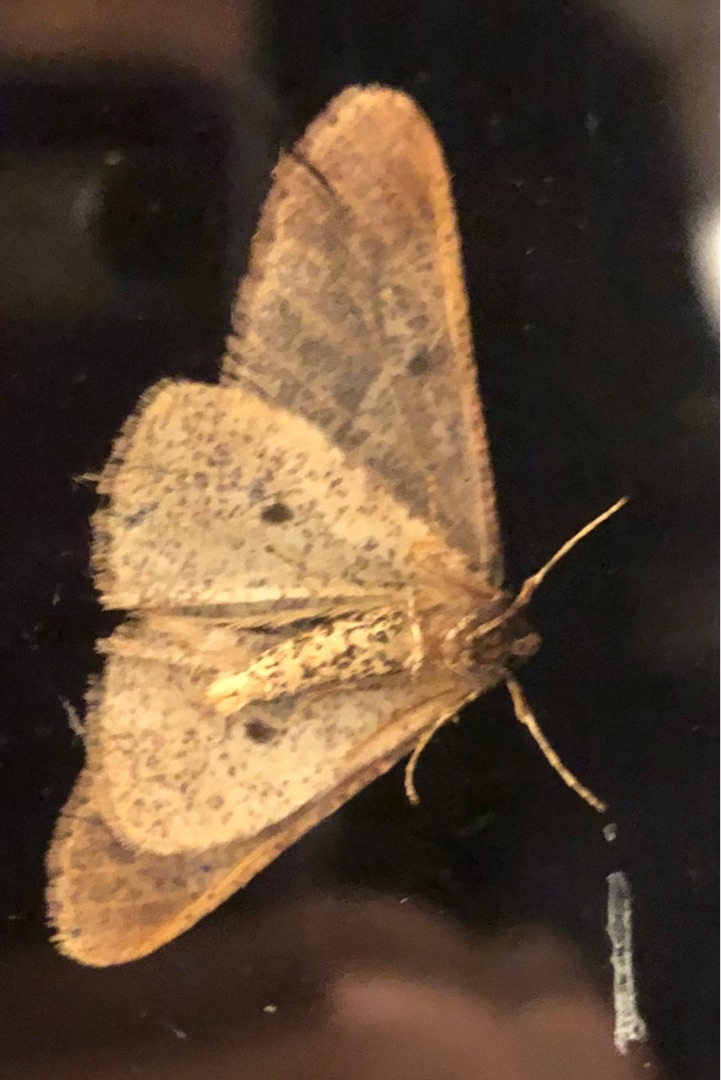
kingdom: Animalia
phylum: Arthropoda
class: Insecta
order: Lepidoptera
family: Geometridae
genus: Erannis
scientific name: Erannis defoliaria
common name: Stor frostmåler
